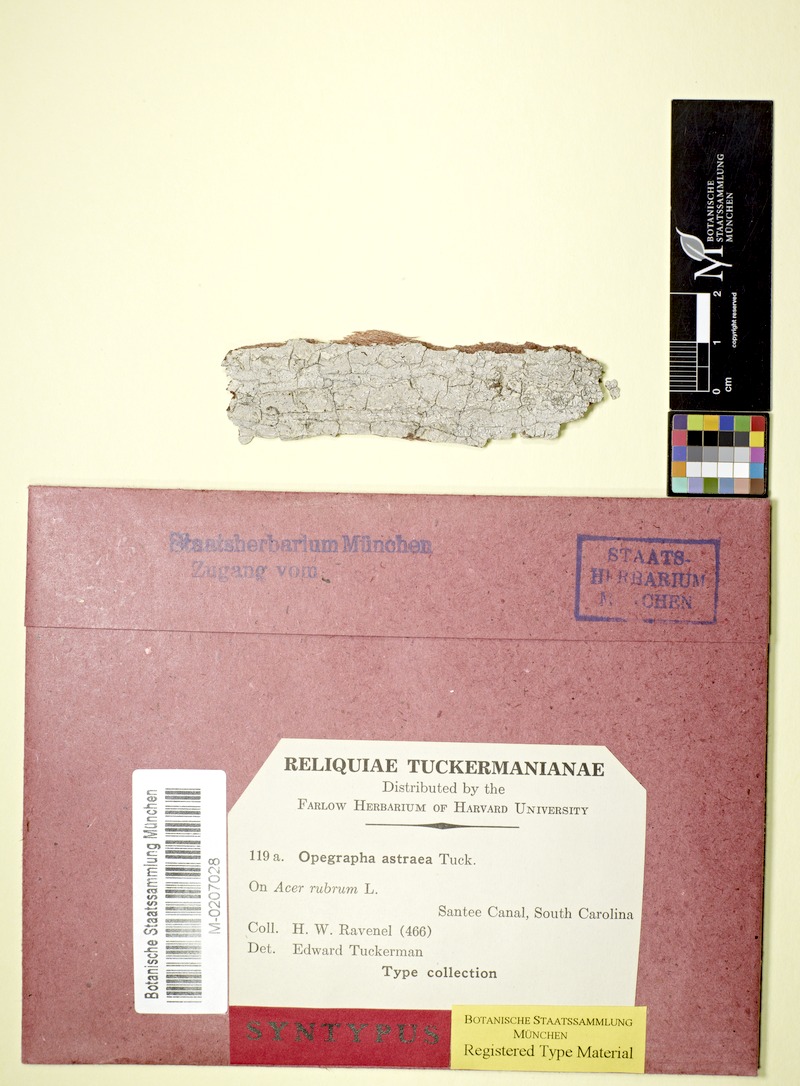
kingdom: Fungi
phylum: Ascomycota
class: Arthoniomycetes
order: Arthoniales
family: Opegraphaceae
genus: Opegrapha
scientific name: Opegrapha astraea
